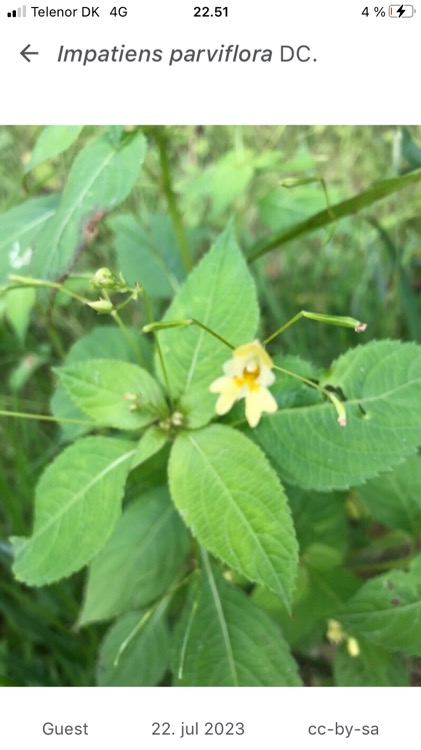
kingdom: Plantae
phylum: Tracheophyta
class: Magnoliopsida
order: Ericales
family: Balsaminaceae
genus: Impatiens
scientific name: Impatiens parviflora
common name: Småblomstret balsamin
